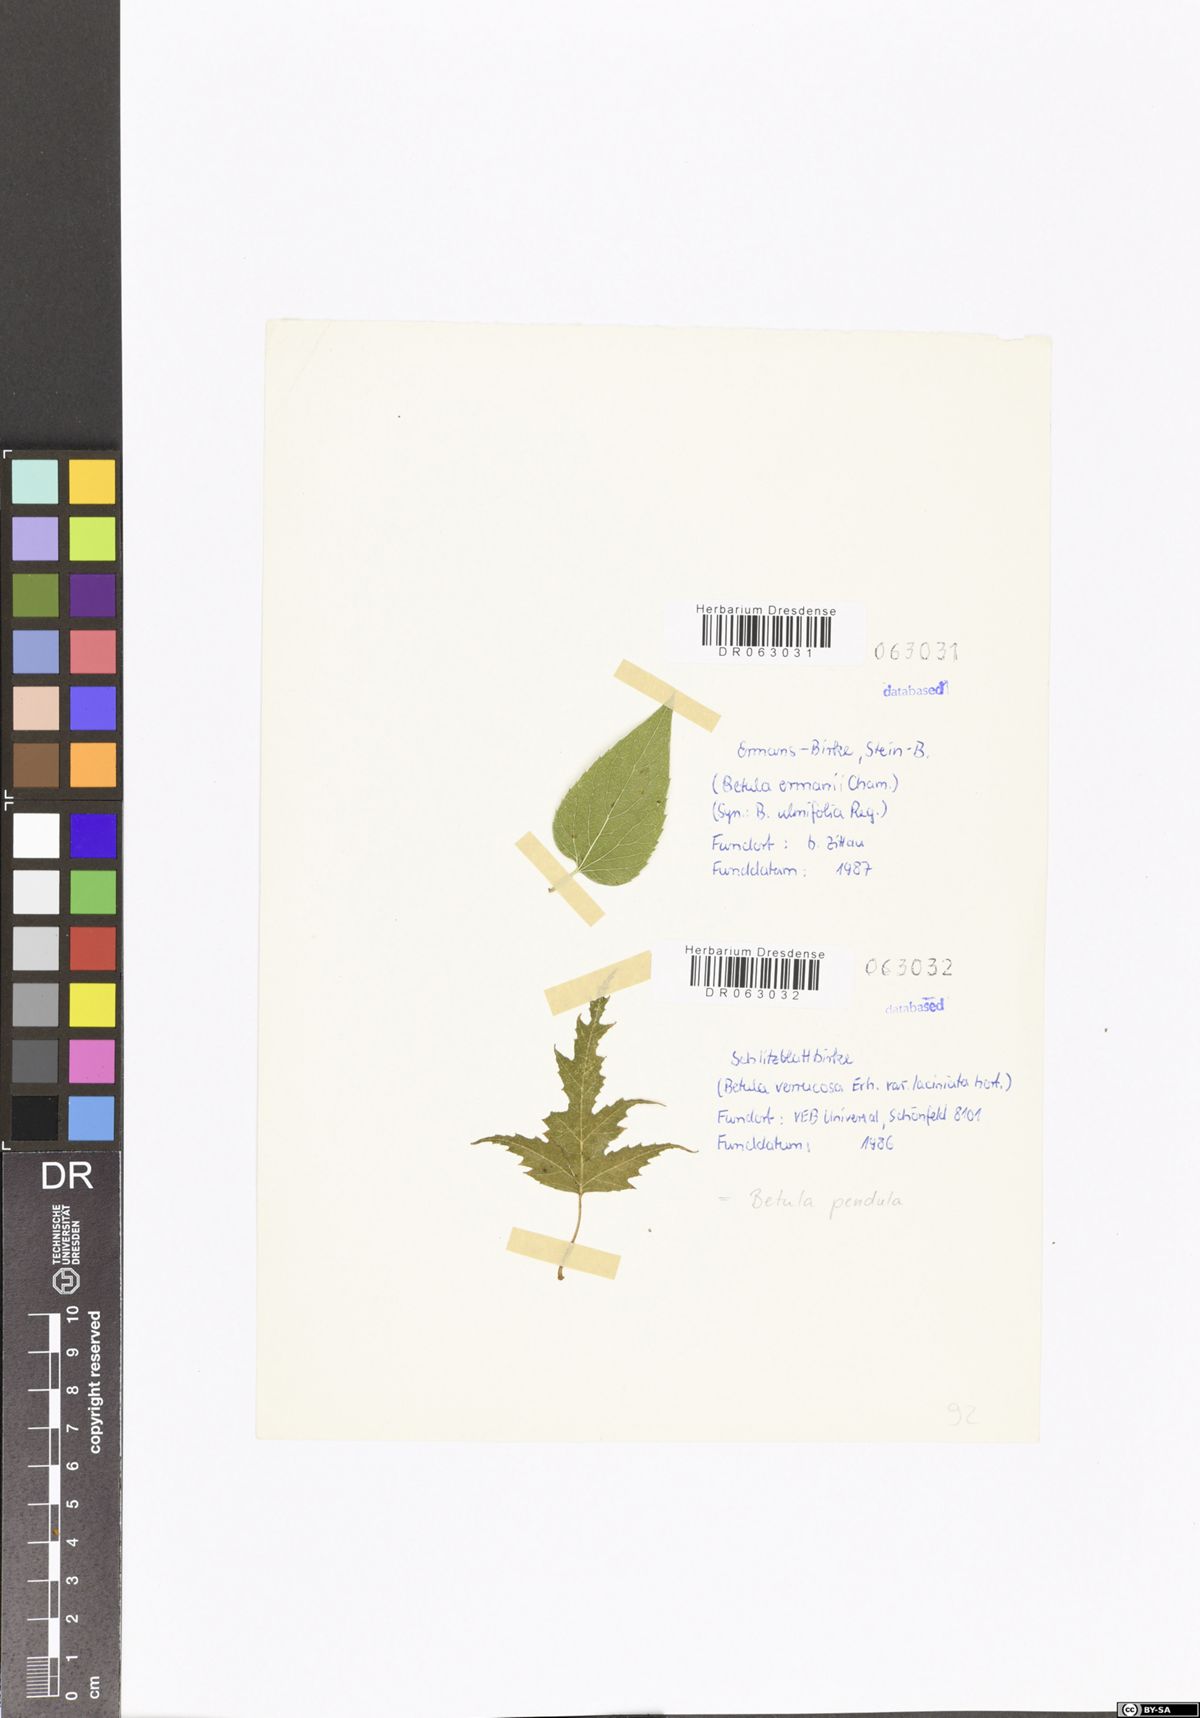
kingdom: Plantae
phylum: Tracheophyta
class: Magnoliopsida
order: Fagales
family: Betulaceae
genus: Betula
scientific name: Betula pendula
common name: Silver birch
